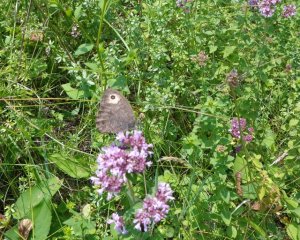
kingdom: Animalia
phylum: Arthropoda
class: Insecta
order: Lepidoptera
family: Nymphalidae
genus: Cercyonis
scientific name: Cercyonis pegala
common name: Common Wood-Nymph
